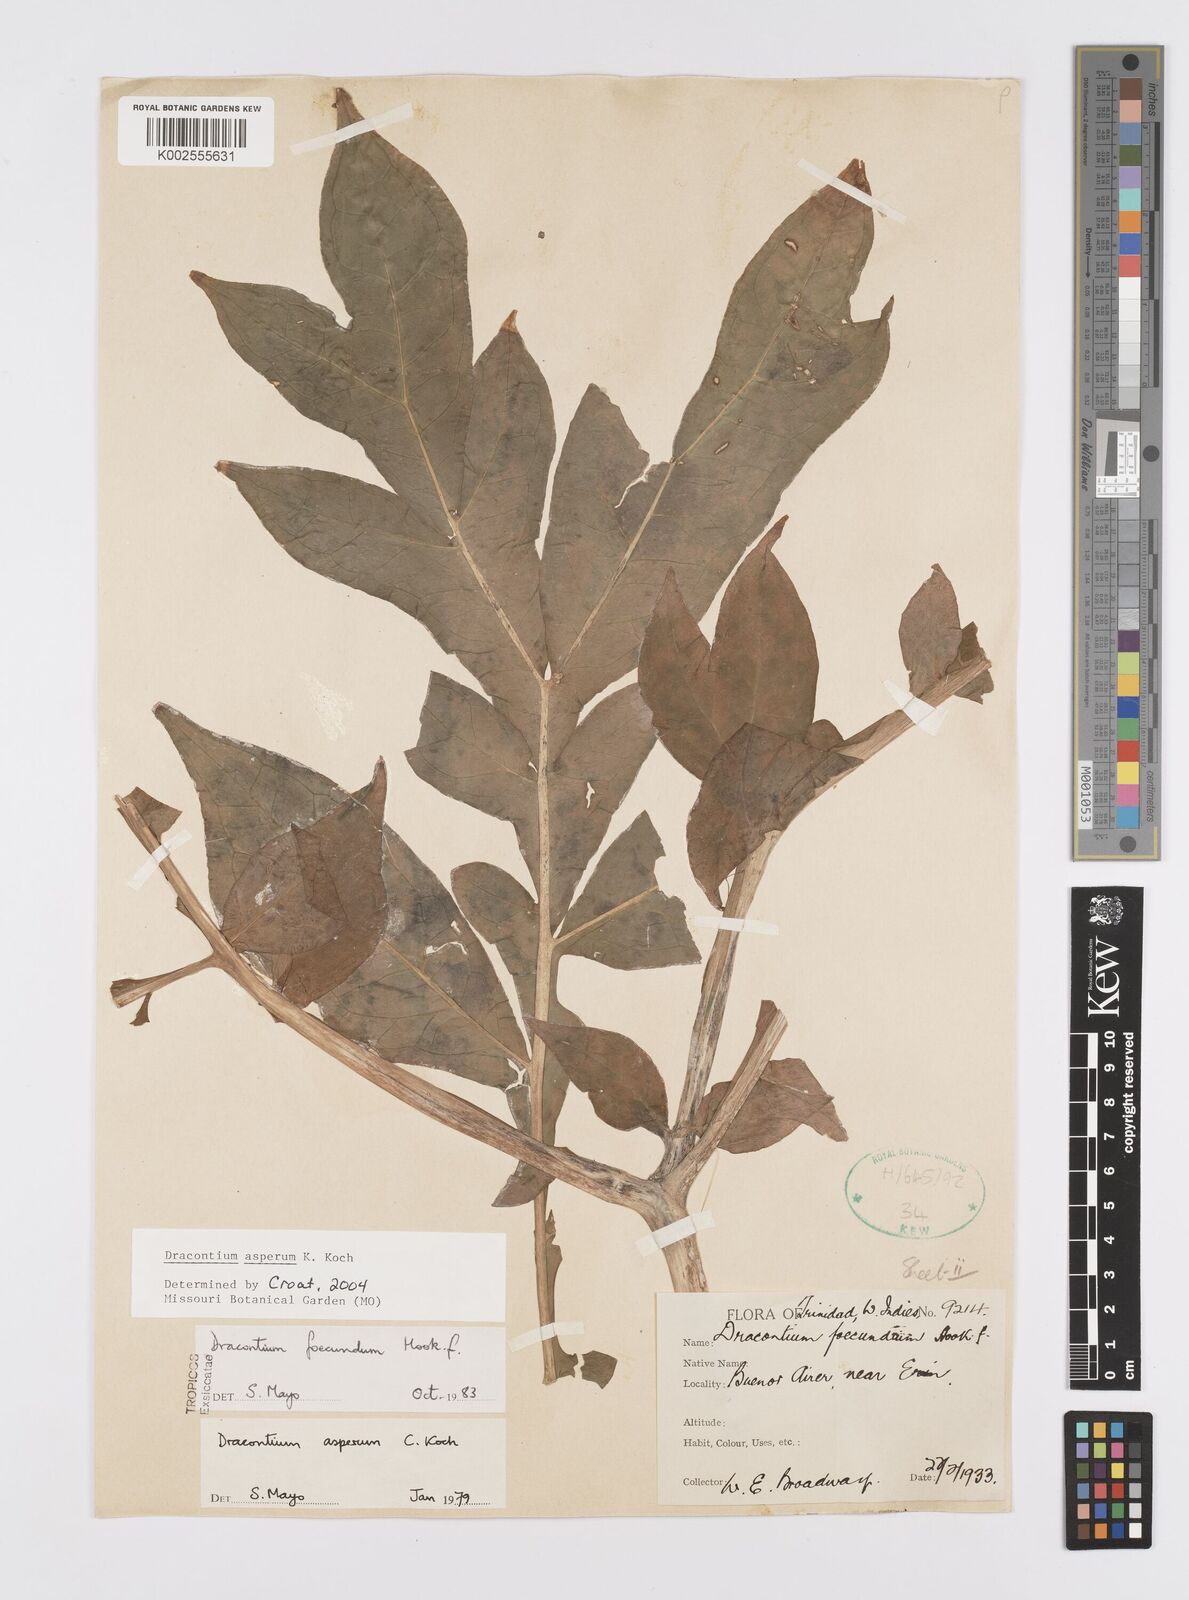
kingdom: Plantae
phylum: Tracheophyta
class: Liliopsida
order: Alismatales
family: Araceae
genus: Dracontium
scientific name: Dracontium asperum
